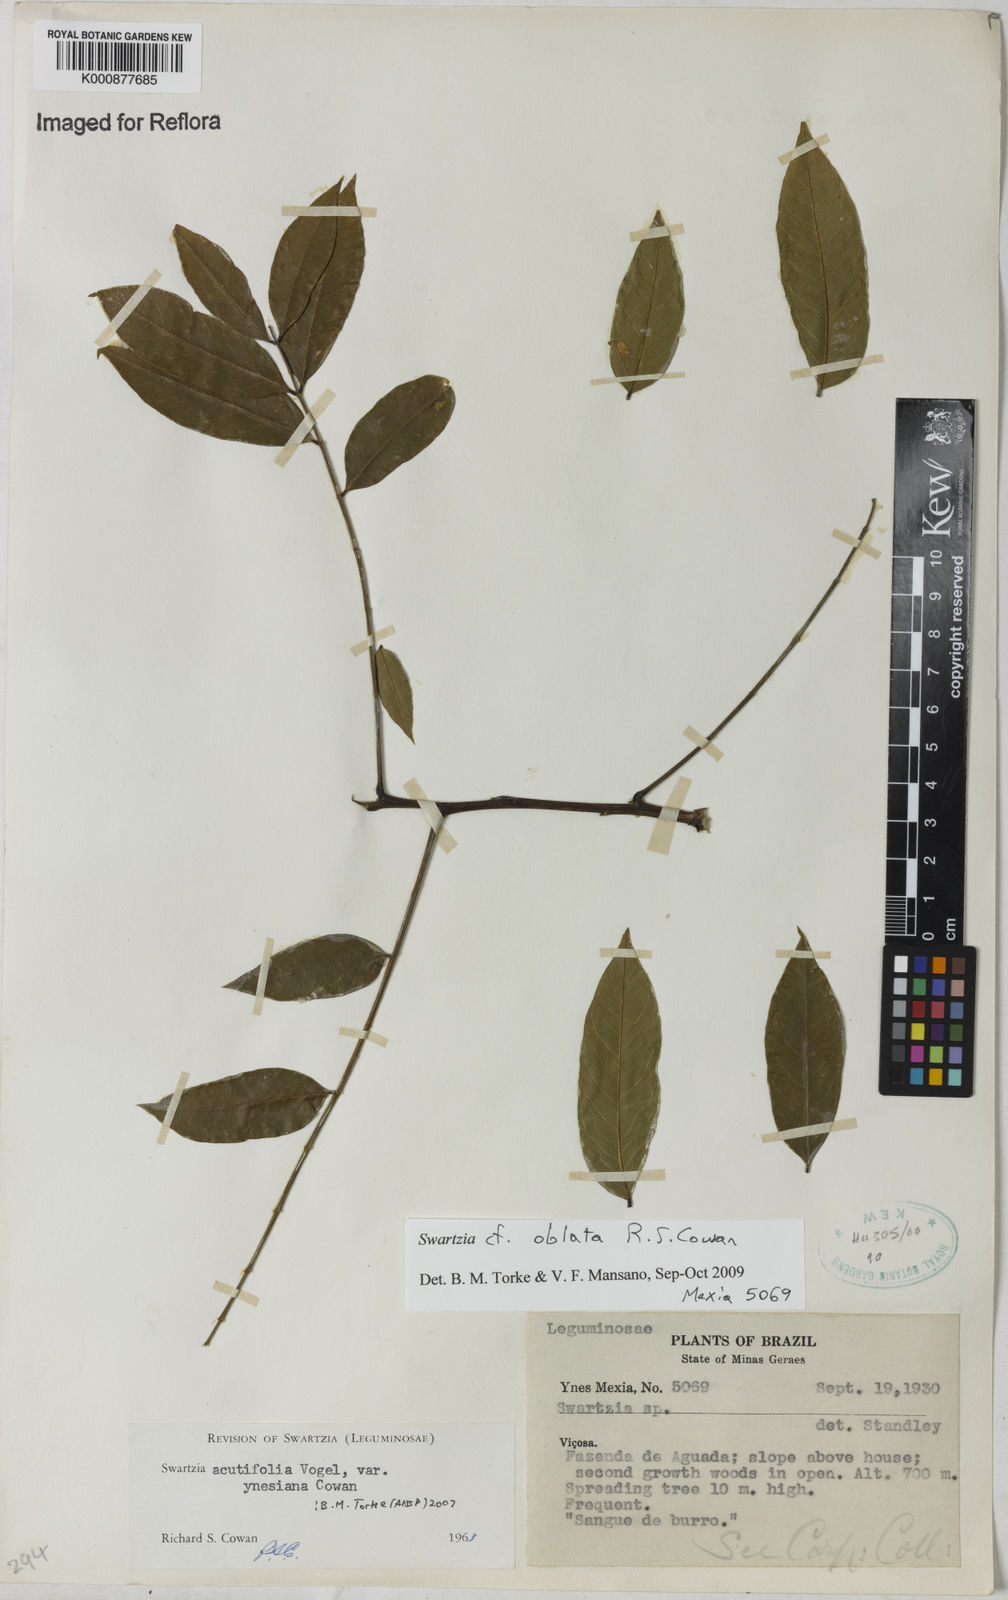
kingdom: Plantae
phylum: Tracheophyta
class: Magnoliopsida
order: Fabales
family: Fabaceae
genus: Swartzia
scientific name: Swartzia oblata
